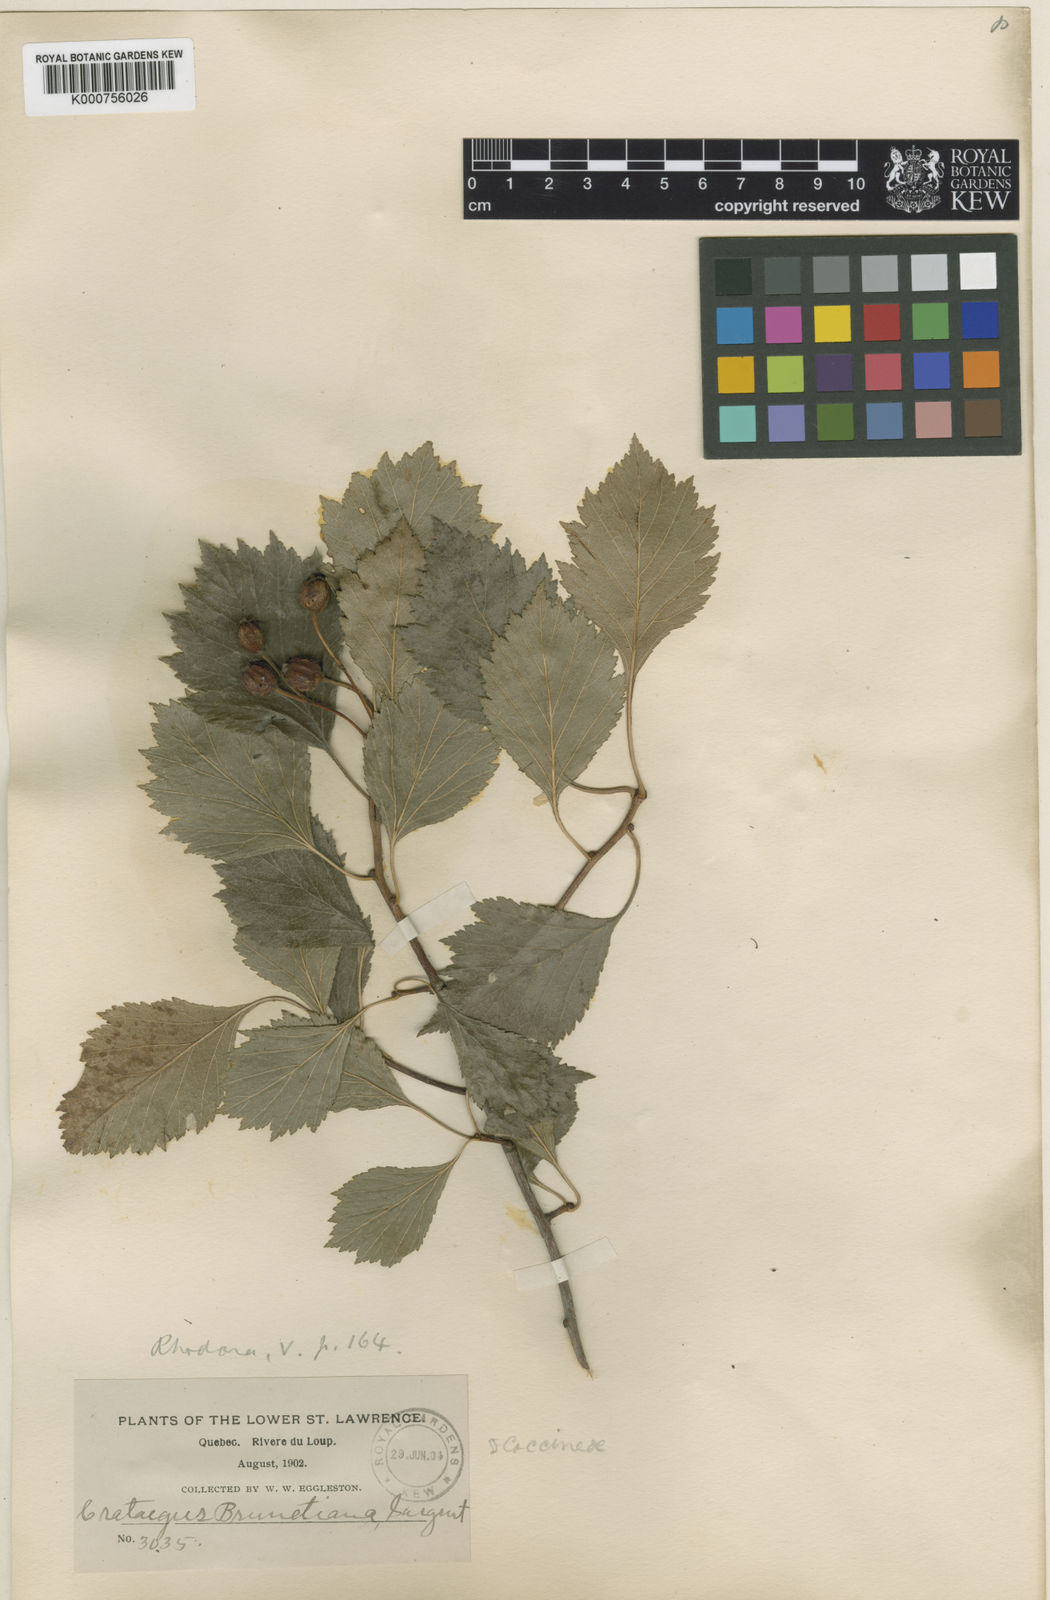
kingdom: Plantae
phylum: Tracheophyta
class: Magnoliopsida
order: Rosales
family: Rosaceae
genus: Crataegus
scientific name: Crataegus chrysocarpa
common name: Fire-berry hawthorn
